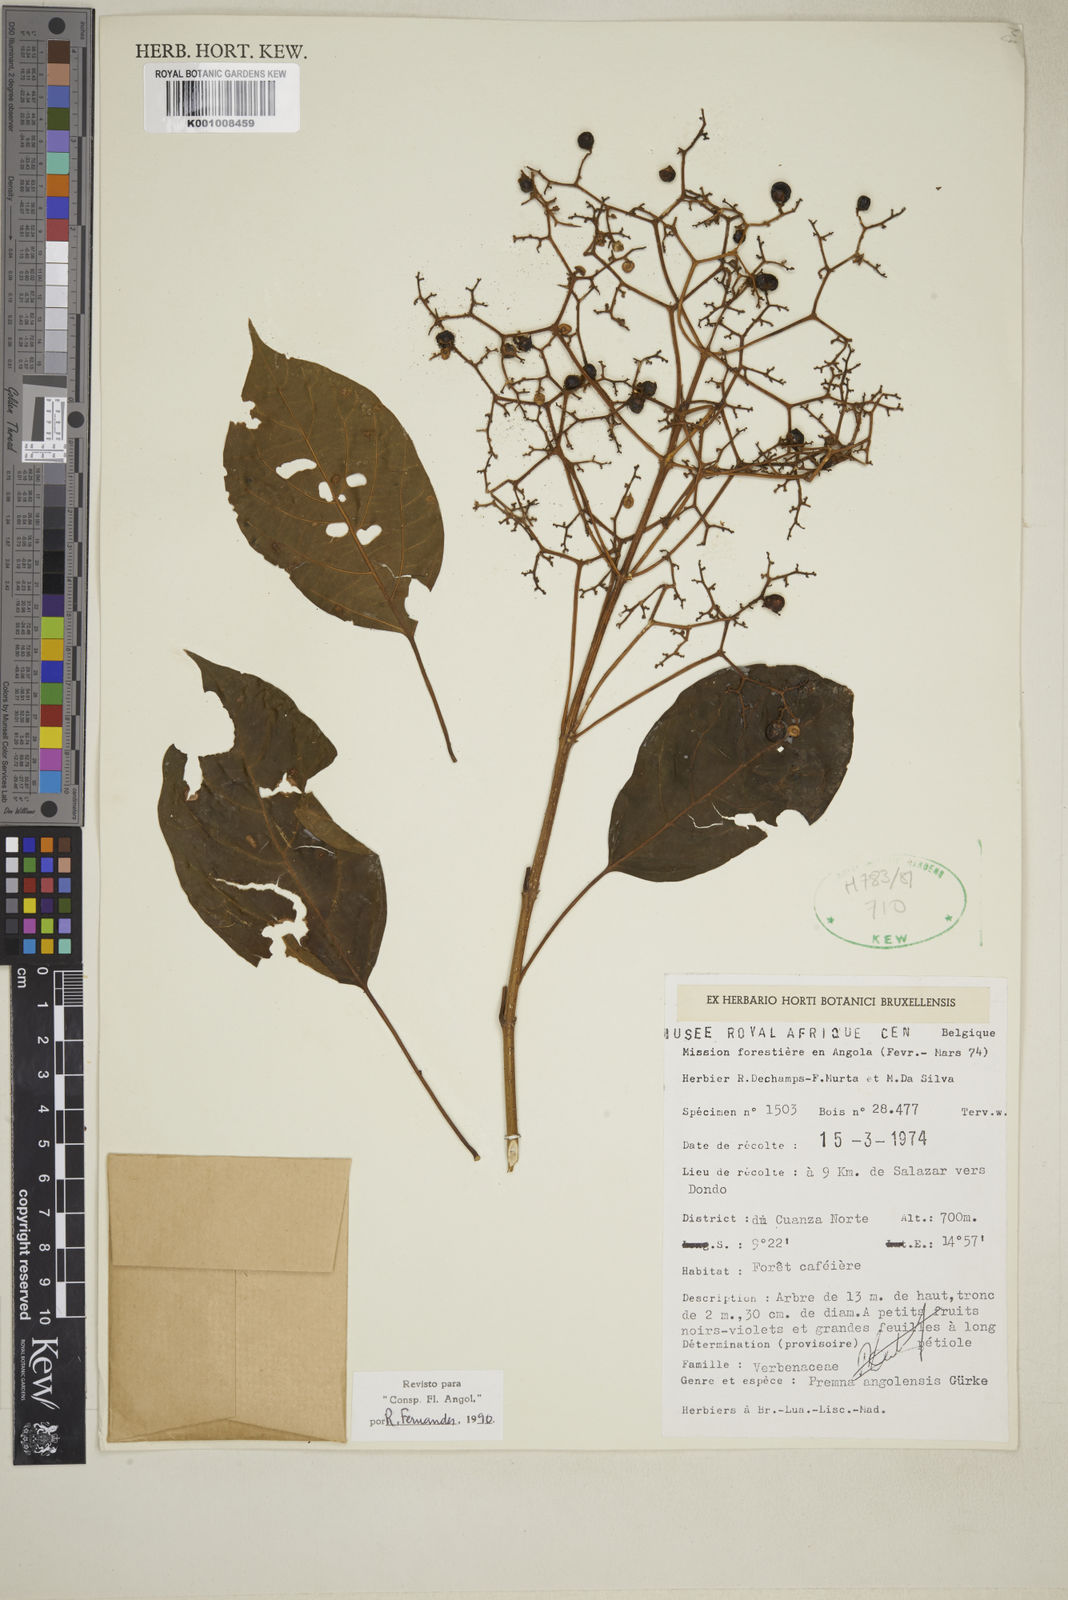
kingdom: Plantae
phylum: Tracheophyta
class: Magnoliopsida
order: Lamiales
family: Lamiaceae
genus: Premna
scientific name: Premna
